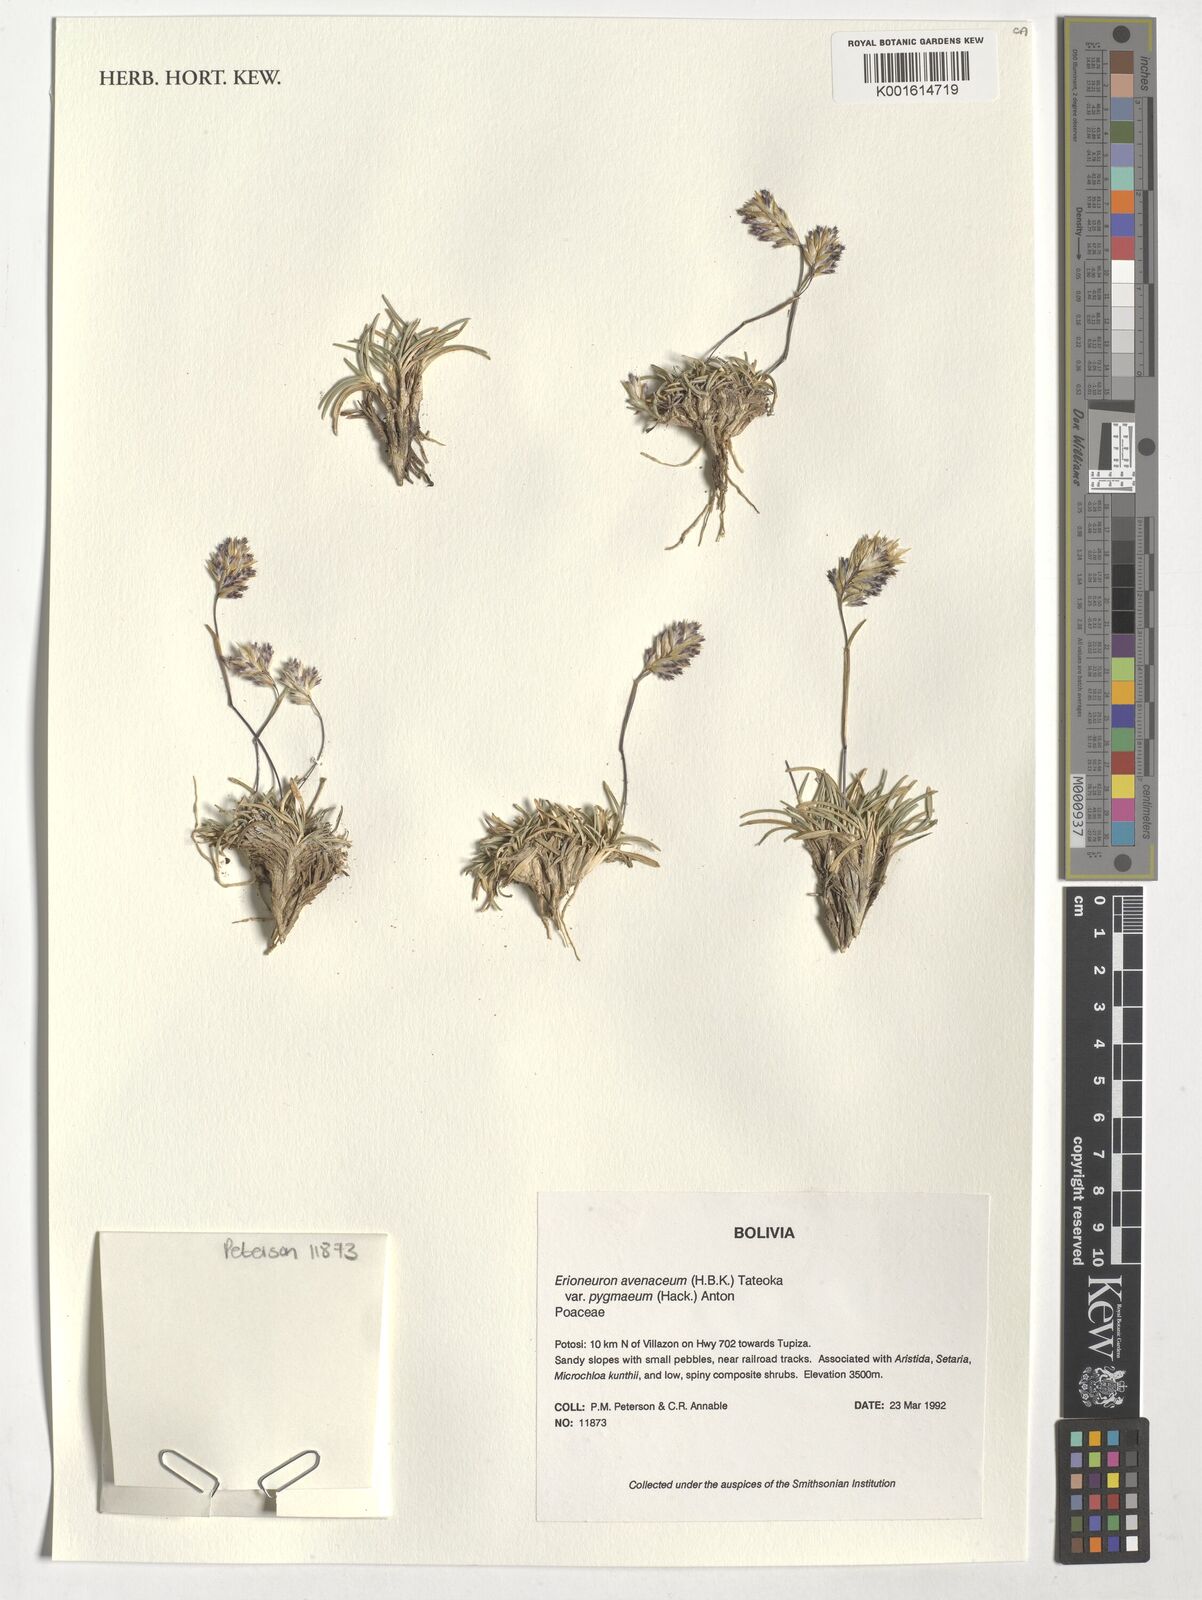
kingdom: Plantae
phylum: Tracheophyta
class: Liliopsida
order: Poales
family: Poaceae
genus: Erioneuron
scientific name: Erioneuron pilosum
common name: Hairy woolly grass
